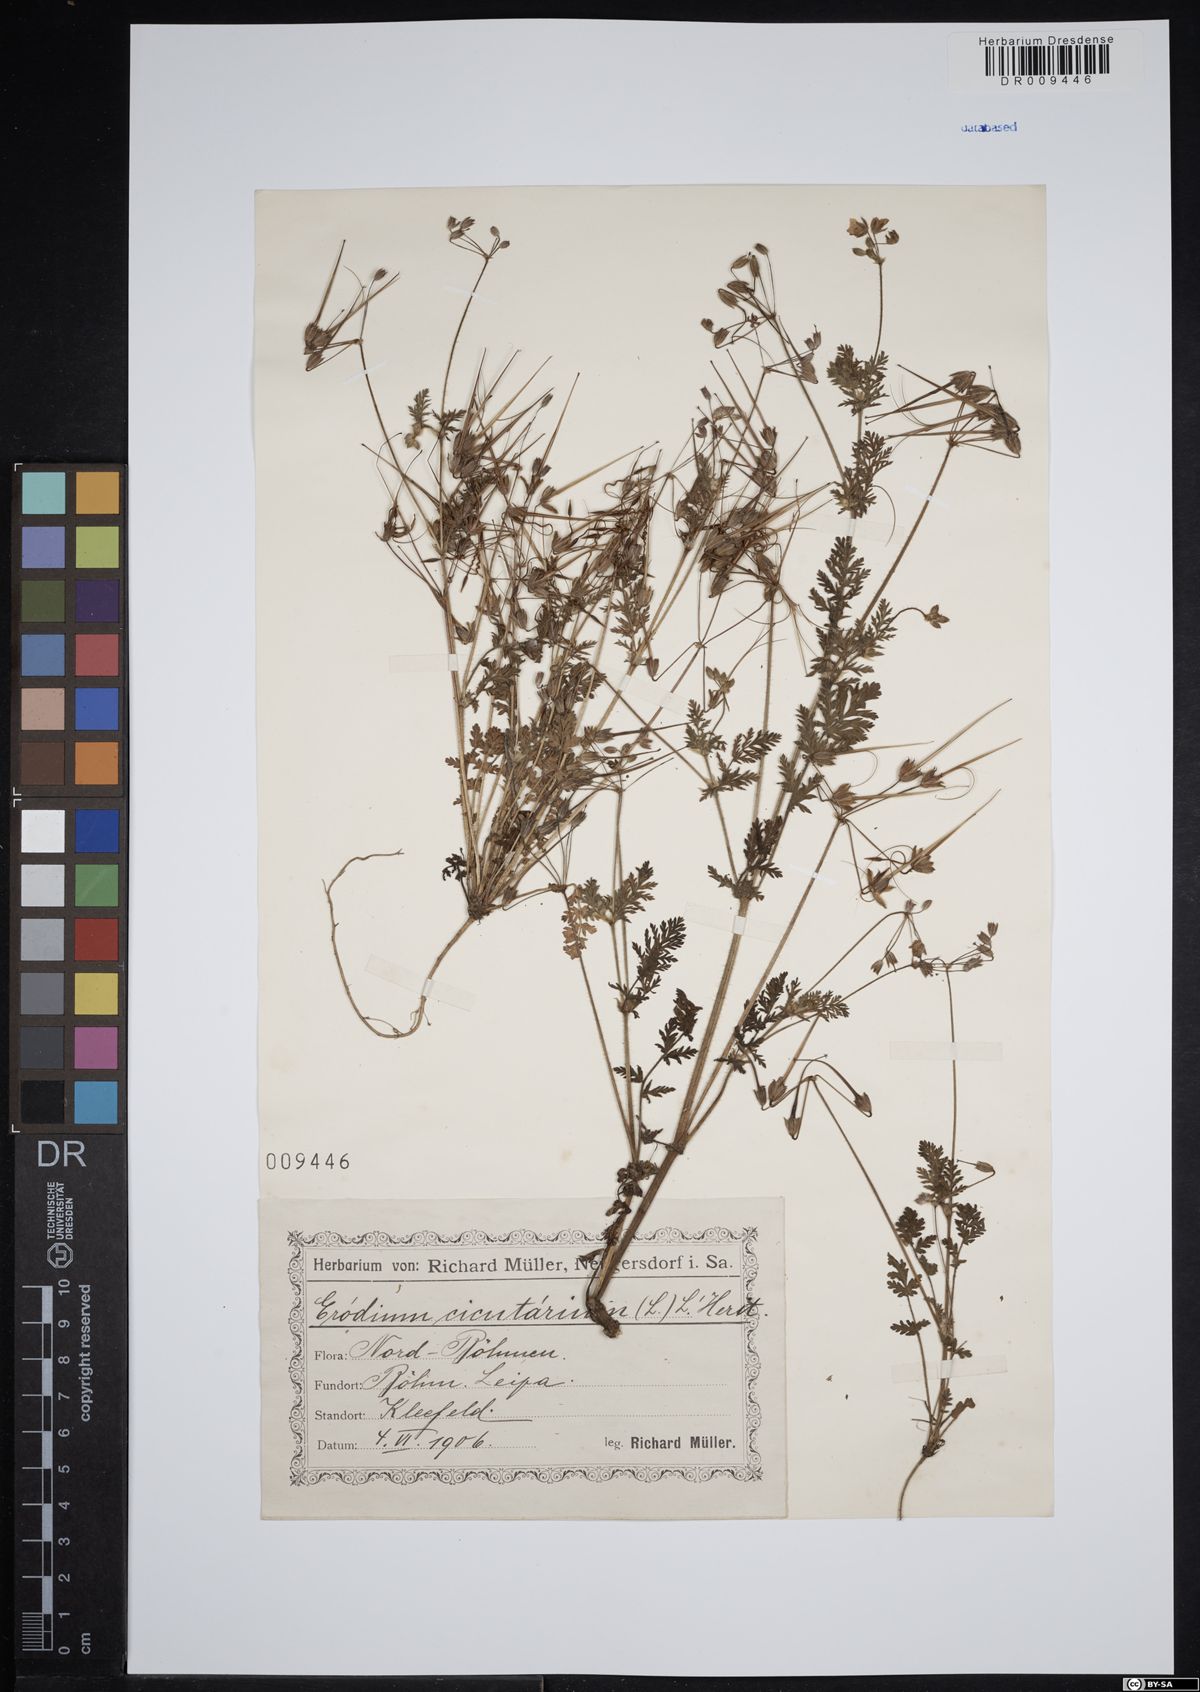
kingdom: Plantae
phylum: Tracheophyta
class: Magnoliopsida
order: Geraniales
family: Geraniaceae
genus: Erodium
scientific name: Erodium cicutarium
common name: Common stork's-bill
